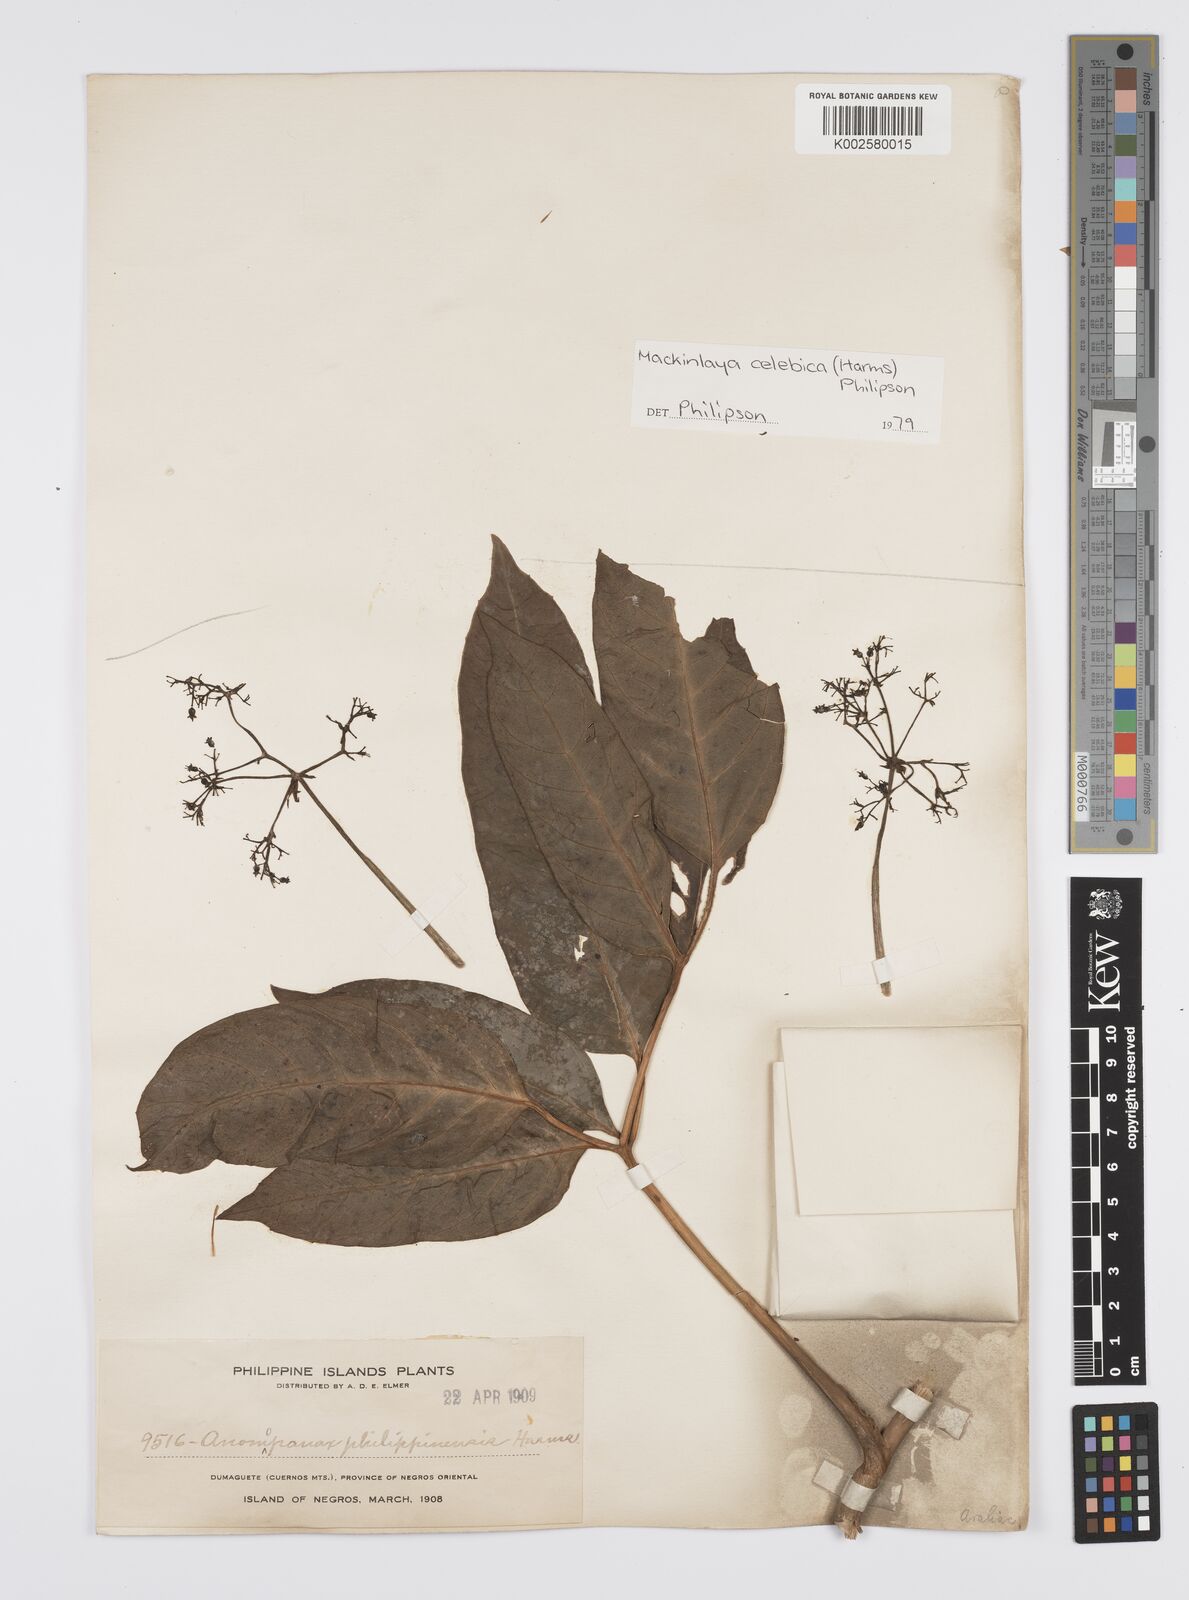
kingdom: Plantae
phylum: Tracheophyta
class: Magnoliopsida
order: Apiales
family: Apiaceae
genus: Mackinlaya
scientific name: Mackinlaya celebica
